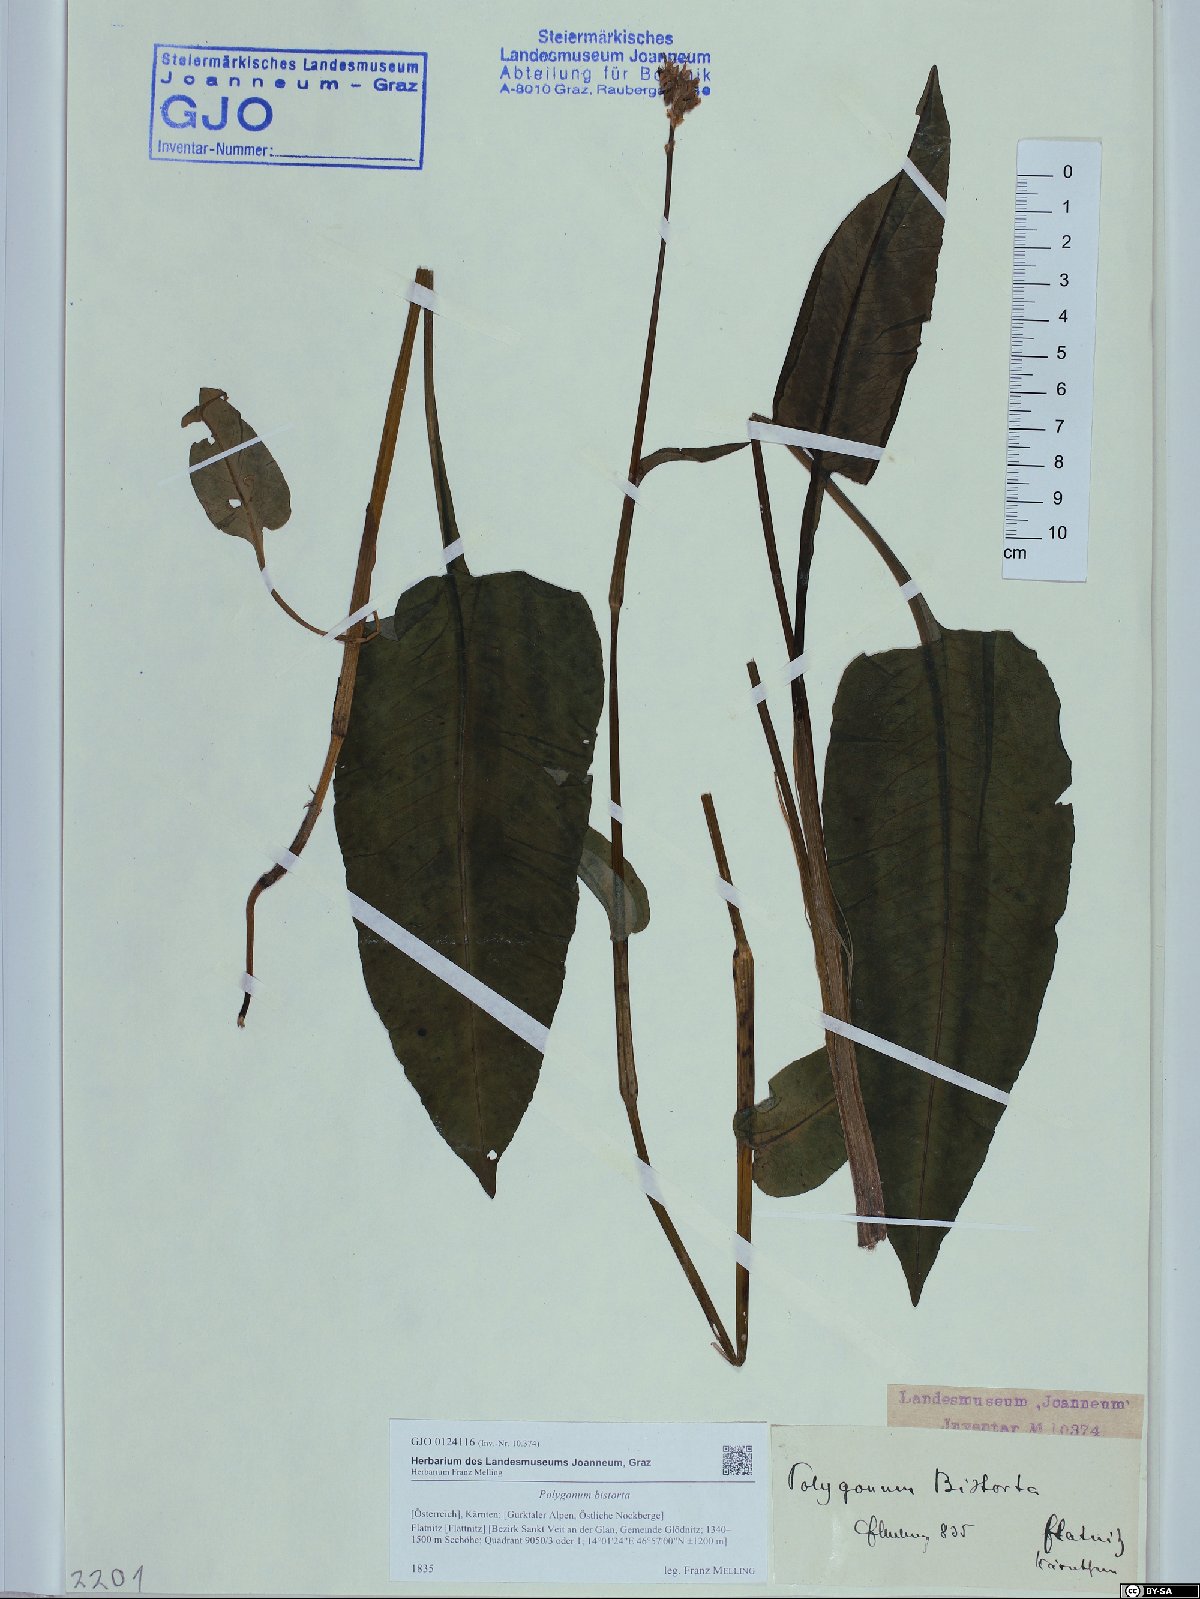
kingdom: Plantae
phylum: Tracheophyta
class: Magnoliopsida
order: Caryophyllales
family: Polygonaceae
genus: Bistorta
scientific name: Bistorta officinalis
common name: Common bistort
